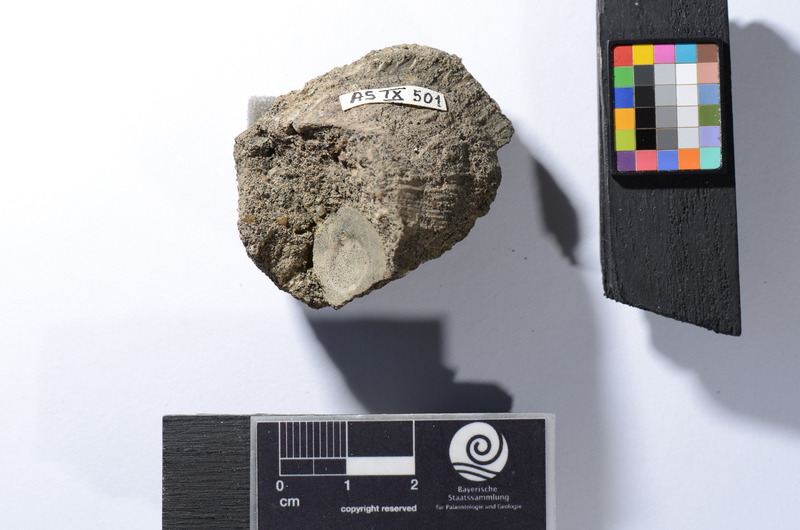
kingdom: Animalia
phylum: Chordata
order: Aulopiformes
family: Dercetidae
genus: Benthesikyme
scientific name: Benthesikyme Dercetis elongatus
